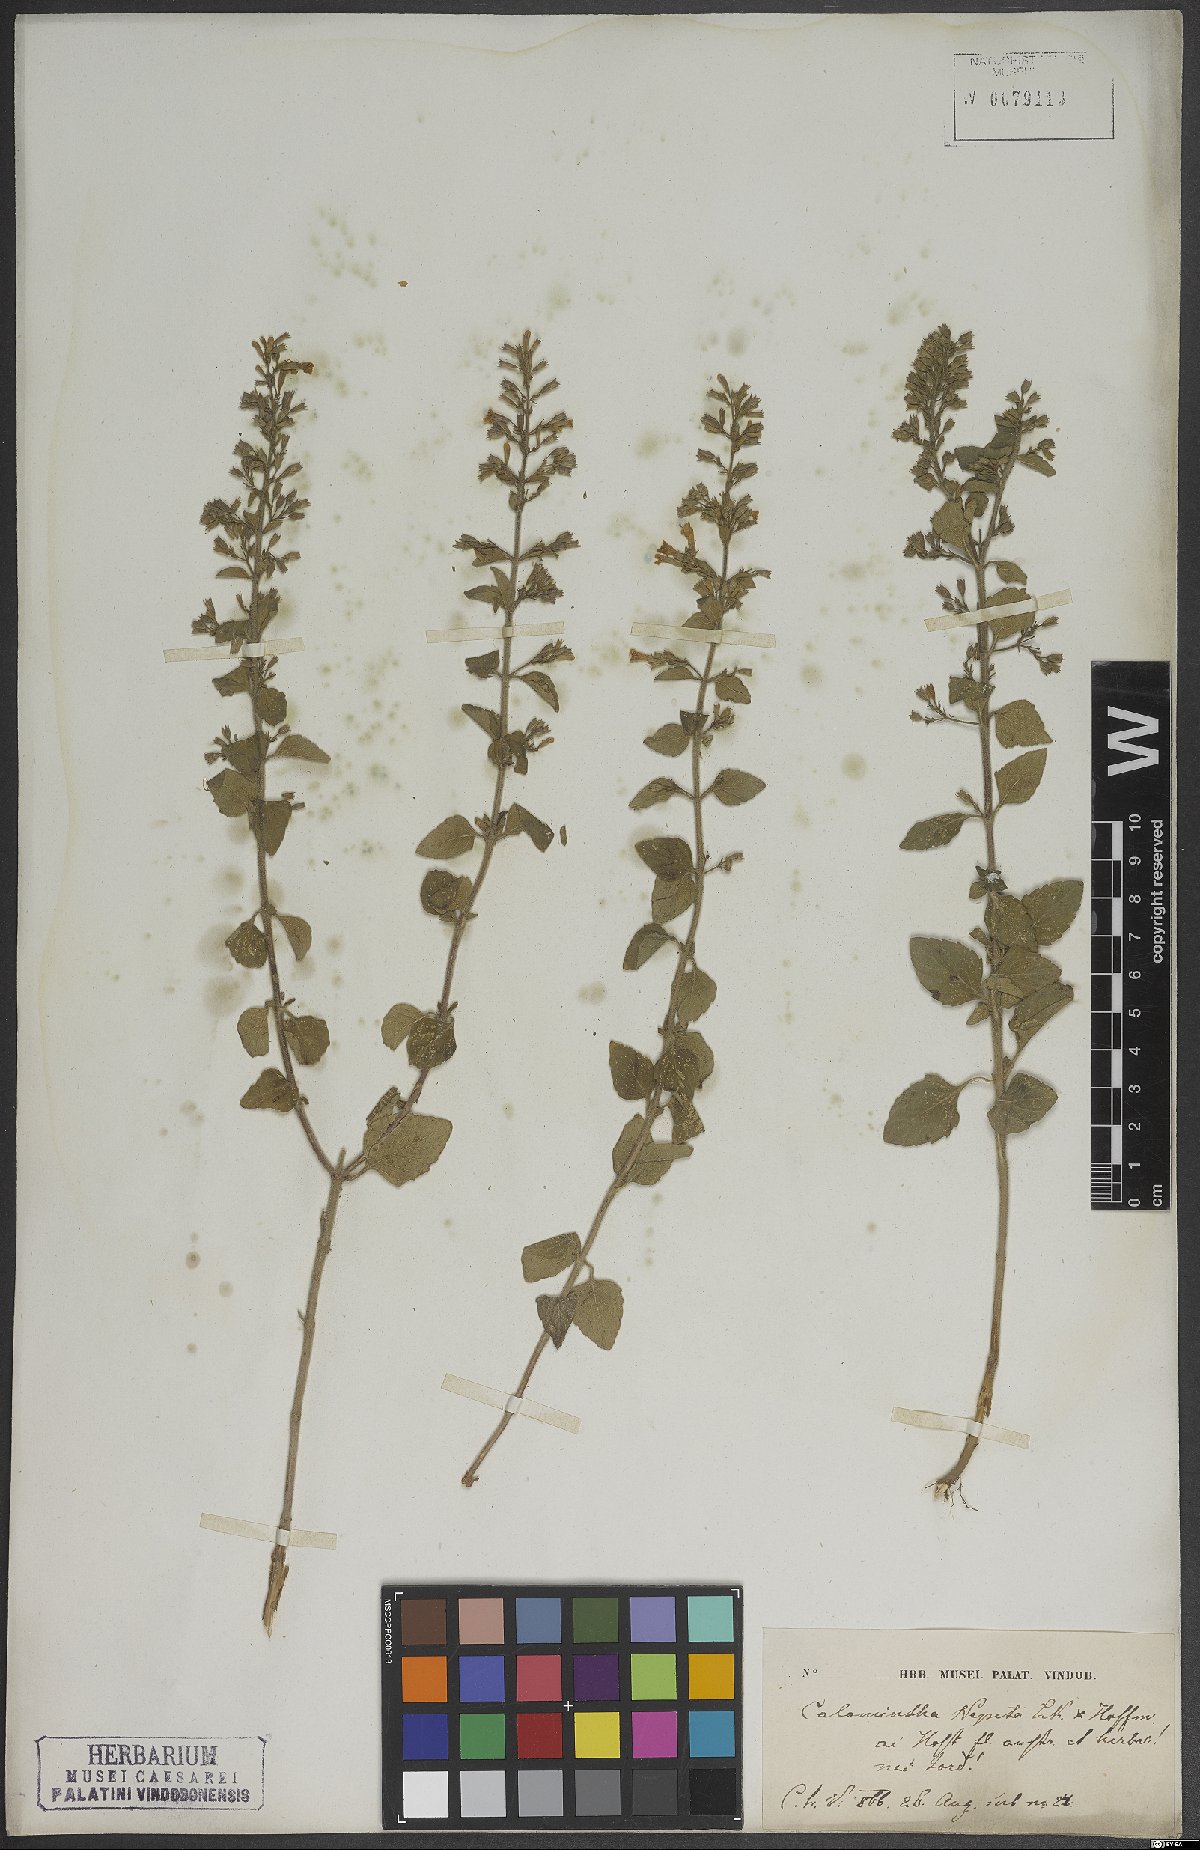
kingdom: Plantae
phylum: Tracheophyta
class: Magnoliopsida
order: Lamiales
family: Lamiaceae
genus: Clinopodium
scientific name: Clinopodium nepeta
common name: Lesser calamint
